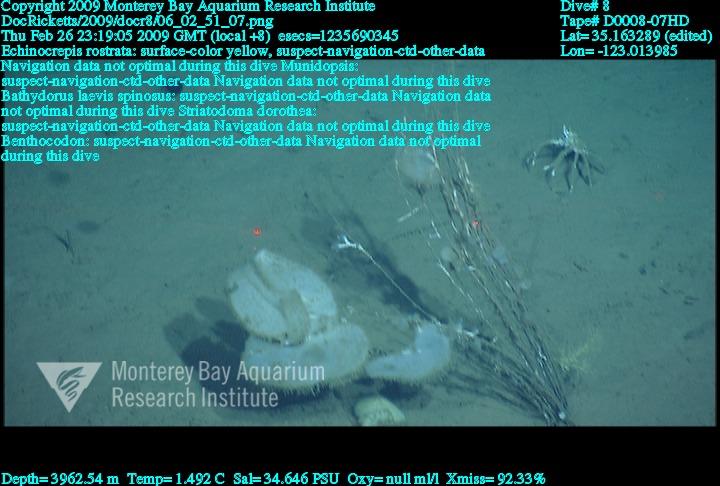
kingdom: Animalia
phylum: Porifera
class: Hexactinellida
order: Lyssacinosida
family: Rossellidae
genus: Bathydorus
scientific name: Bathydorus spinosus
